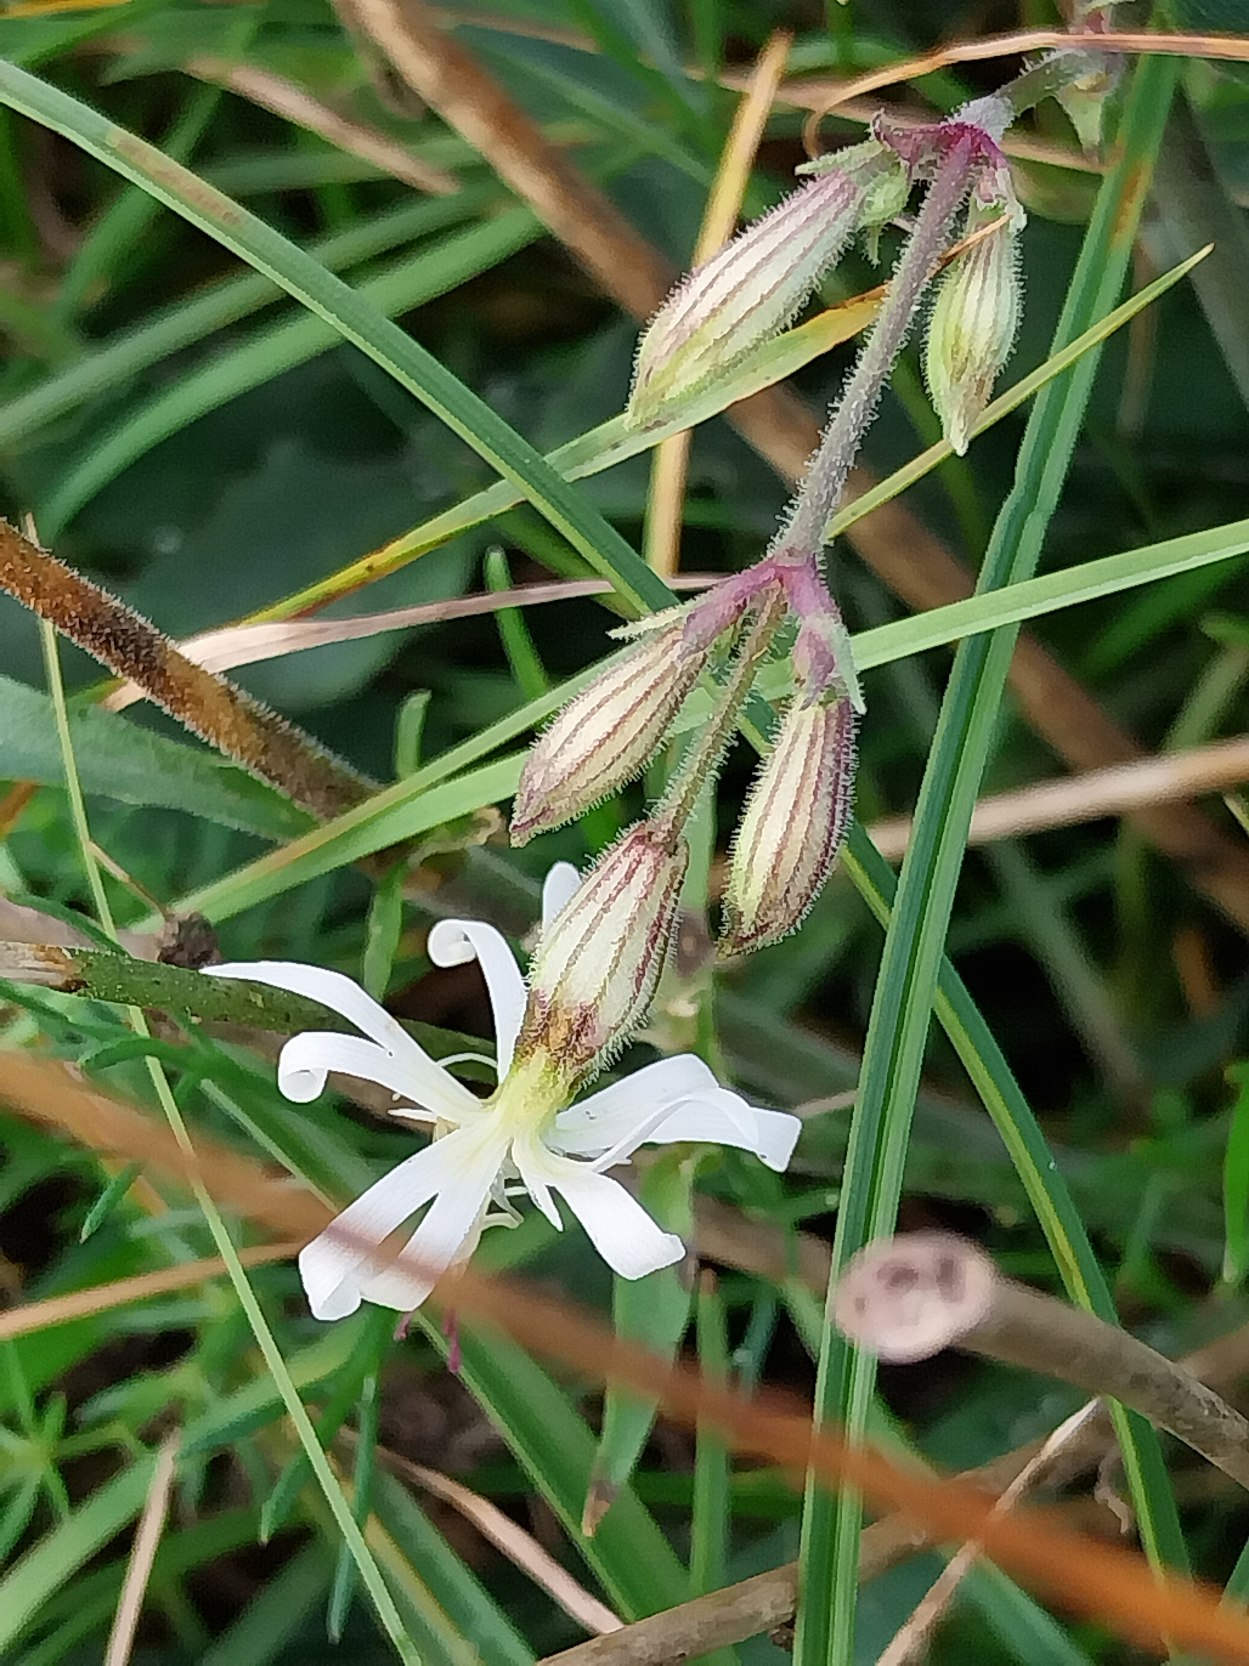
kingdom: Plantae
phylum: Tracheophyta
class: Magnoliopsida
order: Caryophyllales
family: Caryophyllaceae
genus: Silene
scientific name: Silene nutans
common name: Nikkende limurt
